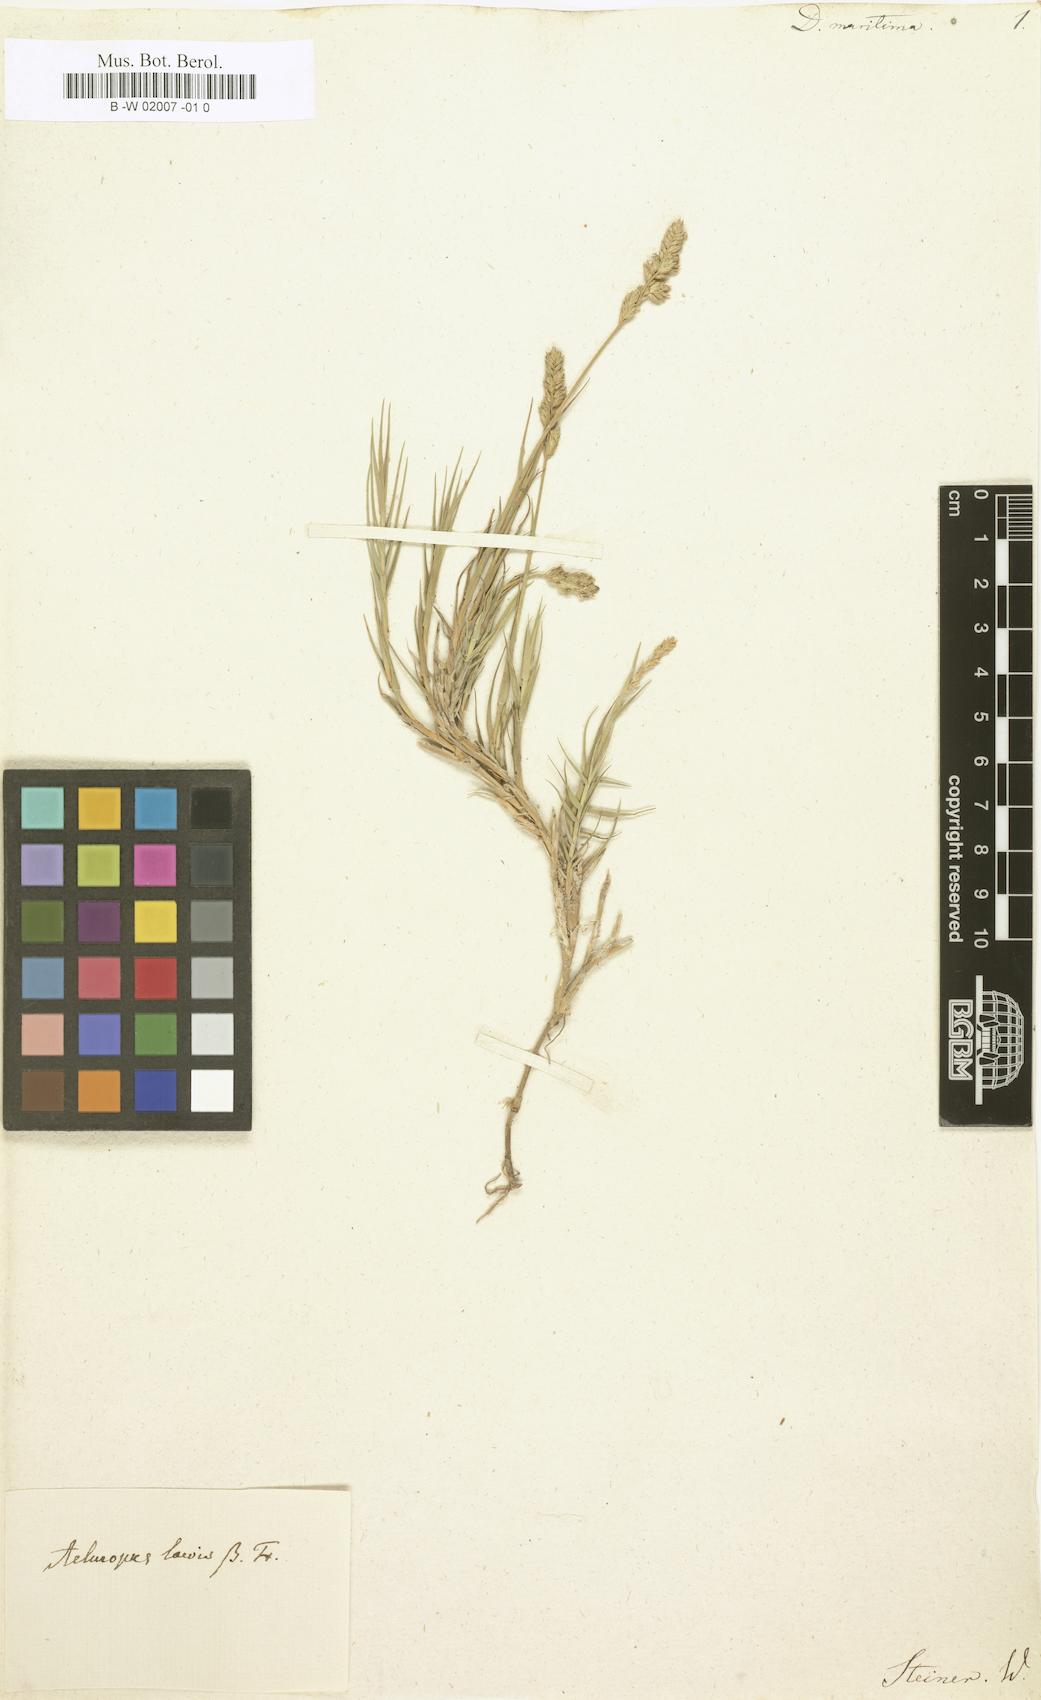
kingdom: Plantae
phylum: Tracheophyta
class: Liliopsida
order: Poales
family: Poaceae
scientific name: Poaceae
